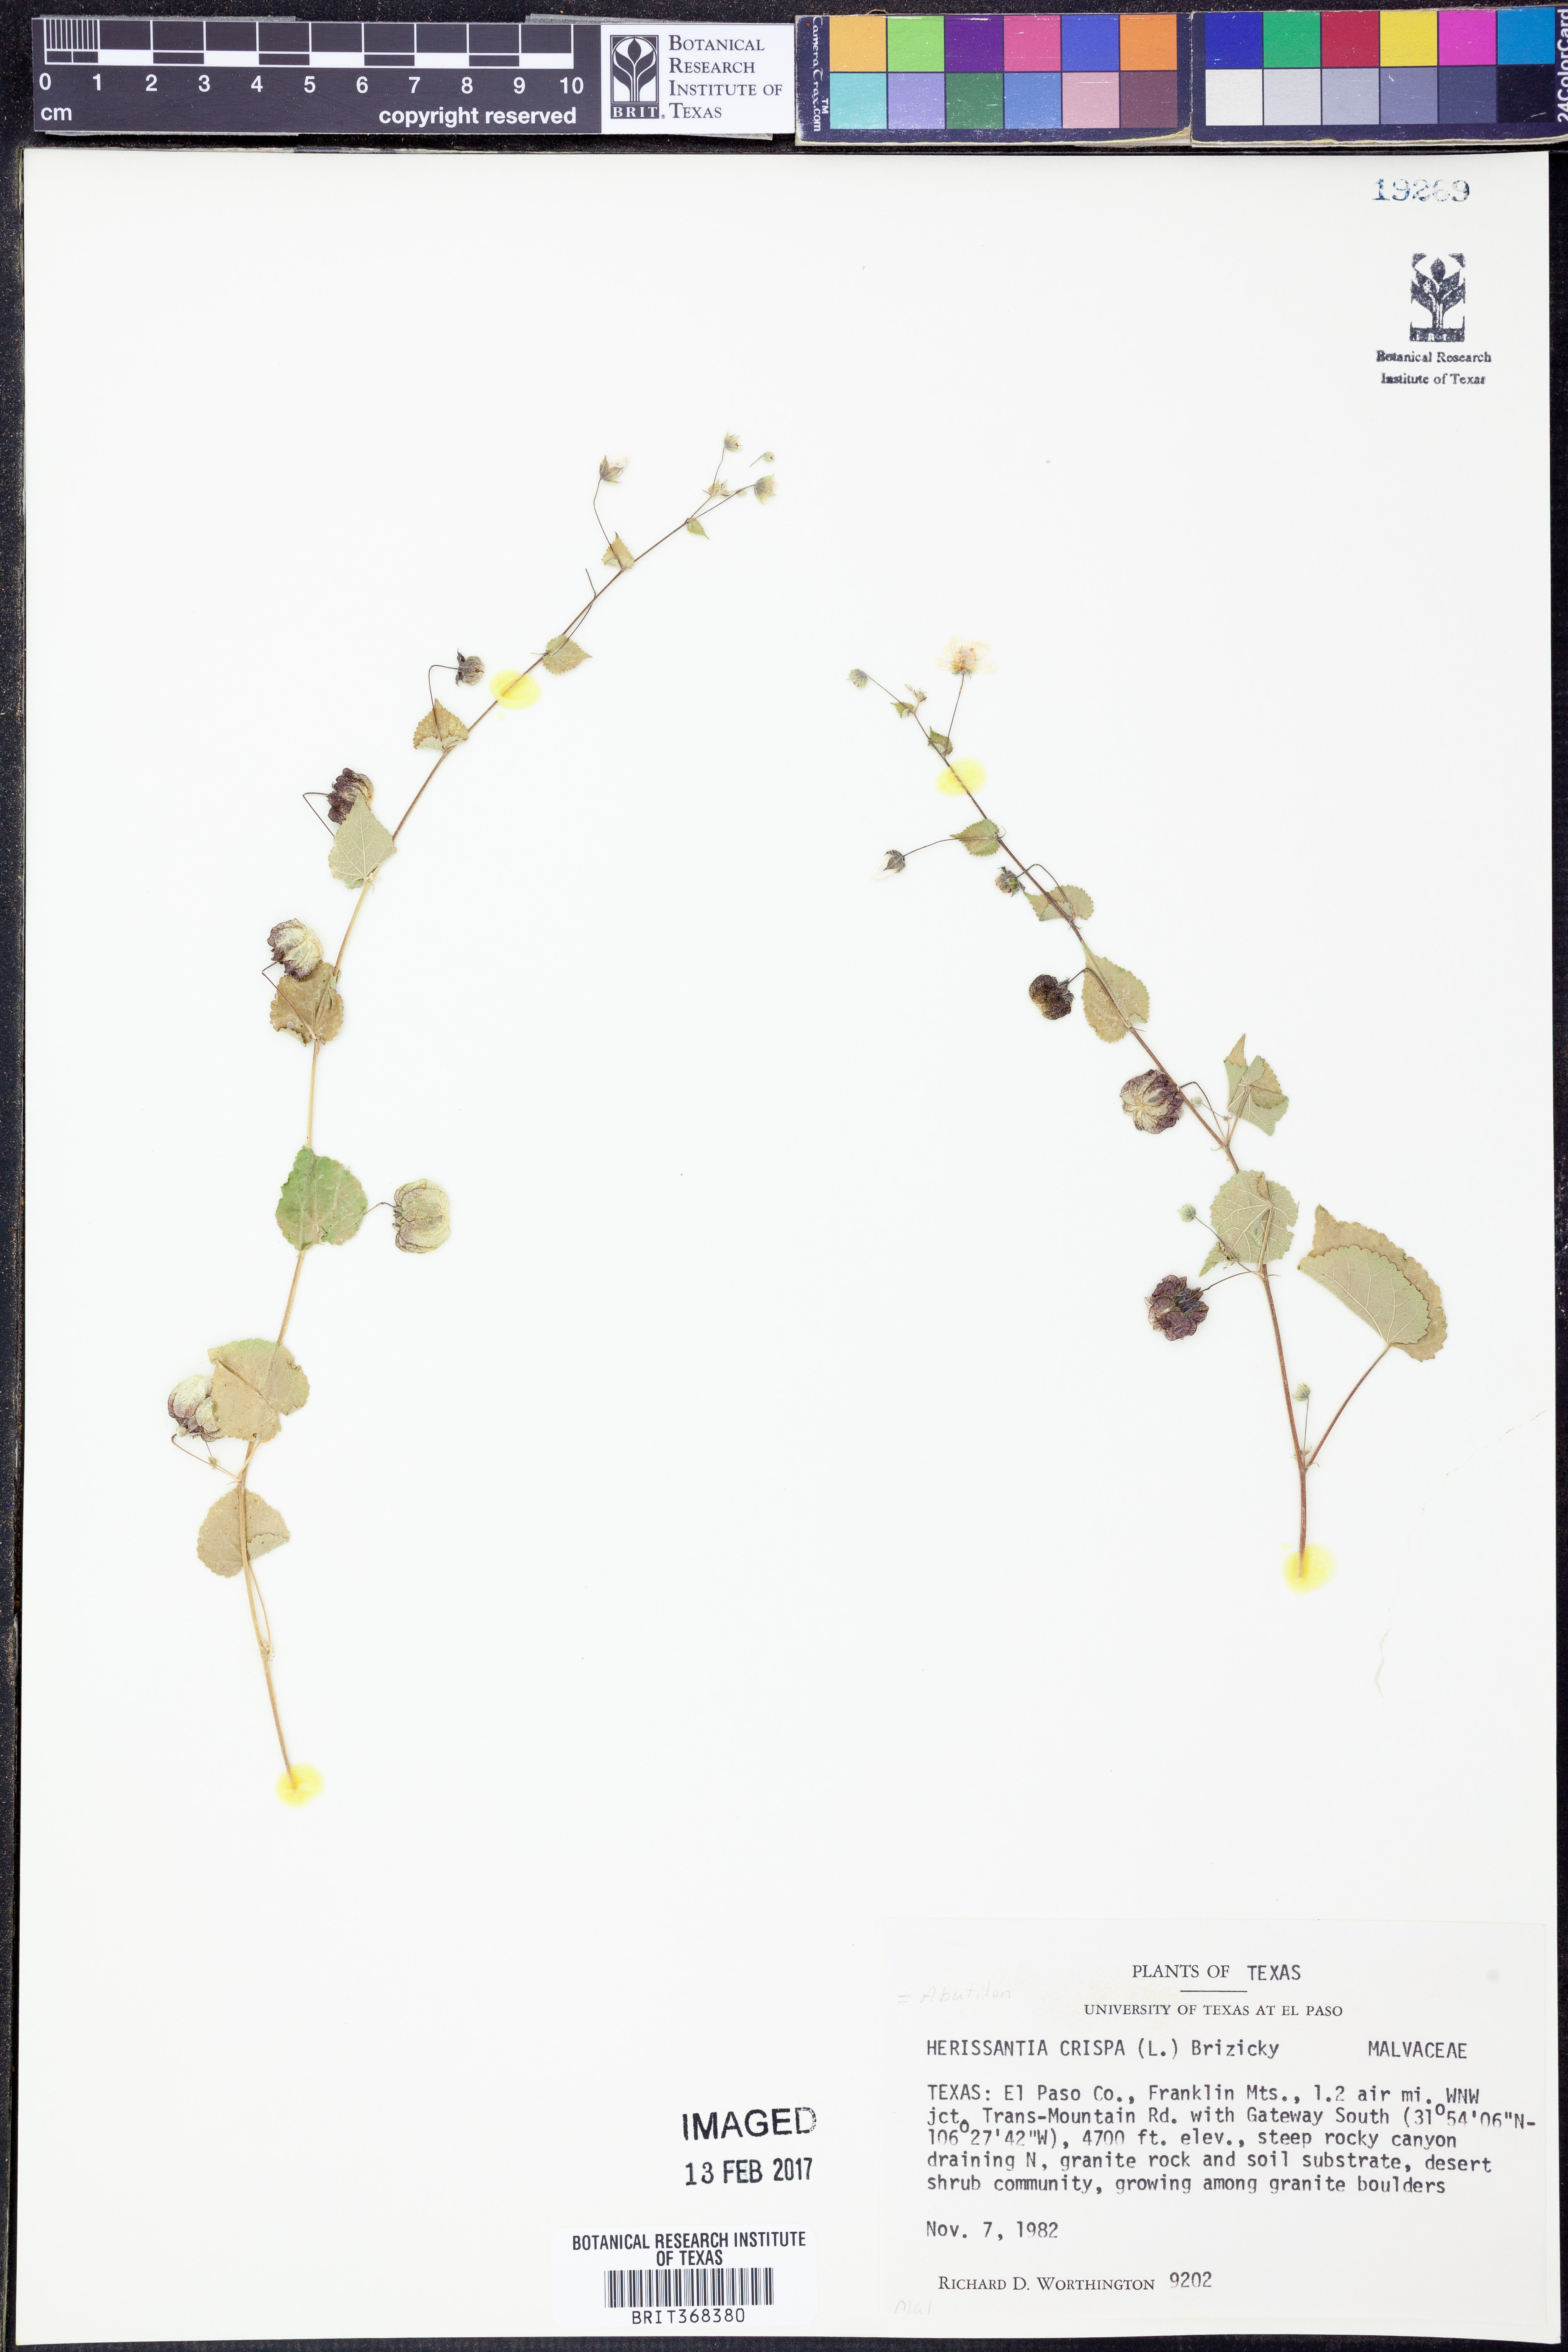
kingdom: Plantae
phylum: Tracheophyta
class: Magnoliopsida
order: Malvales
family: Malvaceae
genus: Herissantia
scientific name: Herissantia crispa
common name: Bladdermallow
